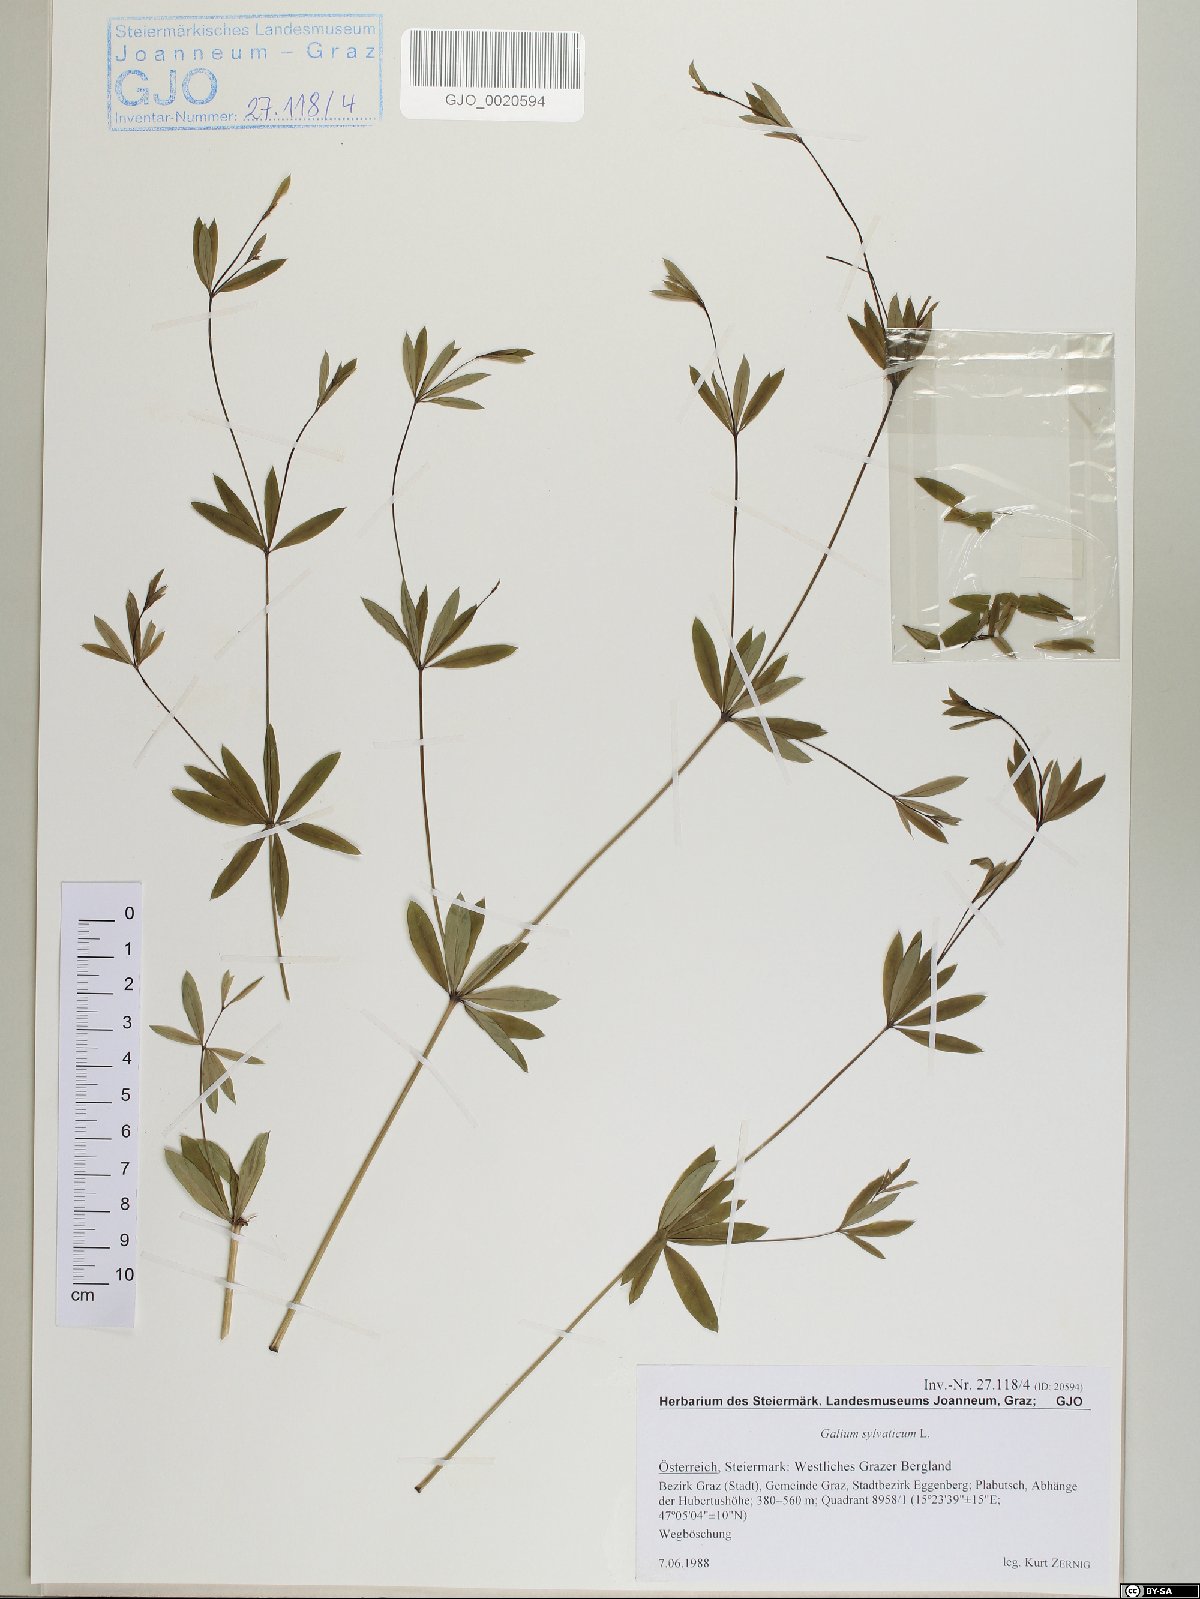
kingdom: Plantae
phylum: Tracheophyta
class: Magnoliopsida
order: Gentianales
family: Rubiaceae
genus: Galium
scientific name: Galium sylvaticum
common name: Wood bedstraw
